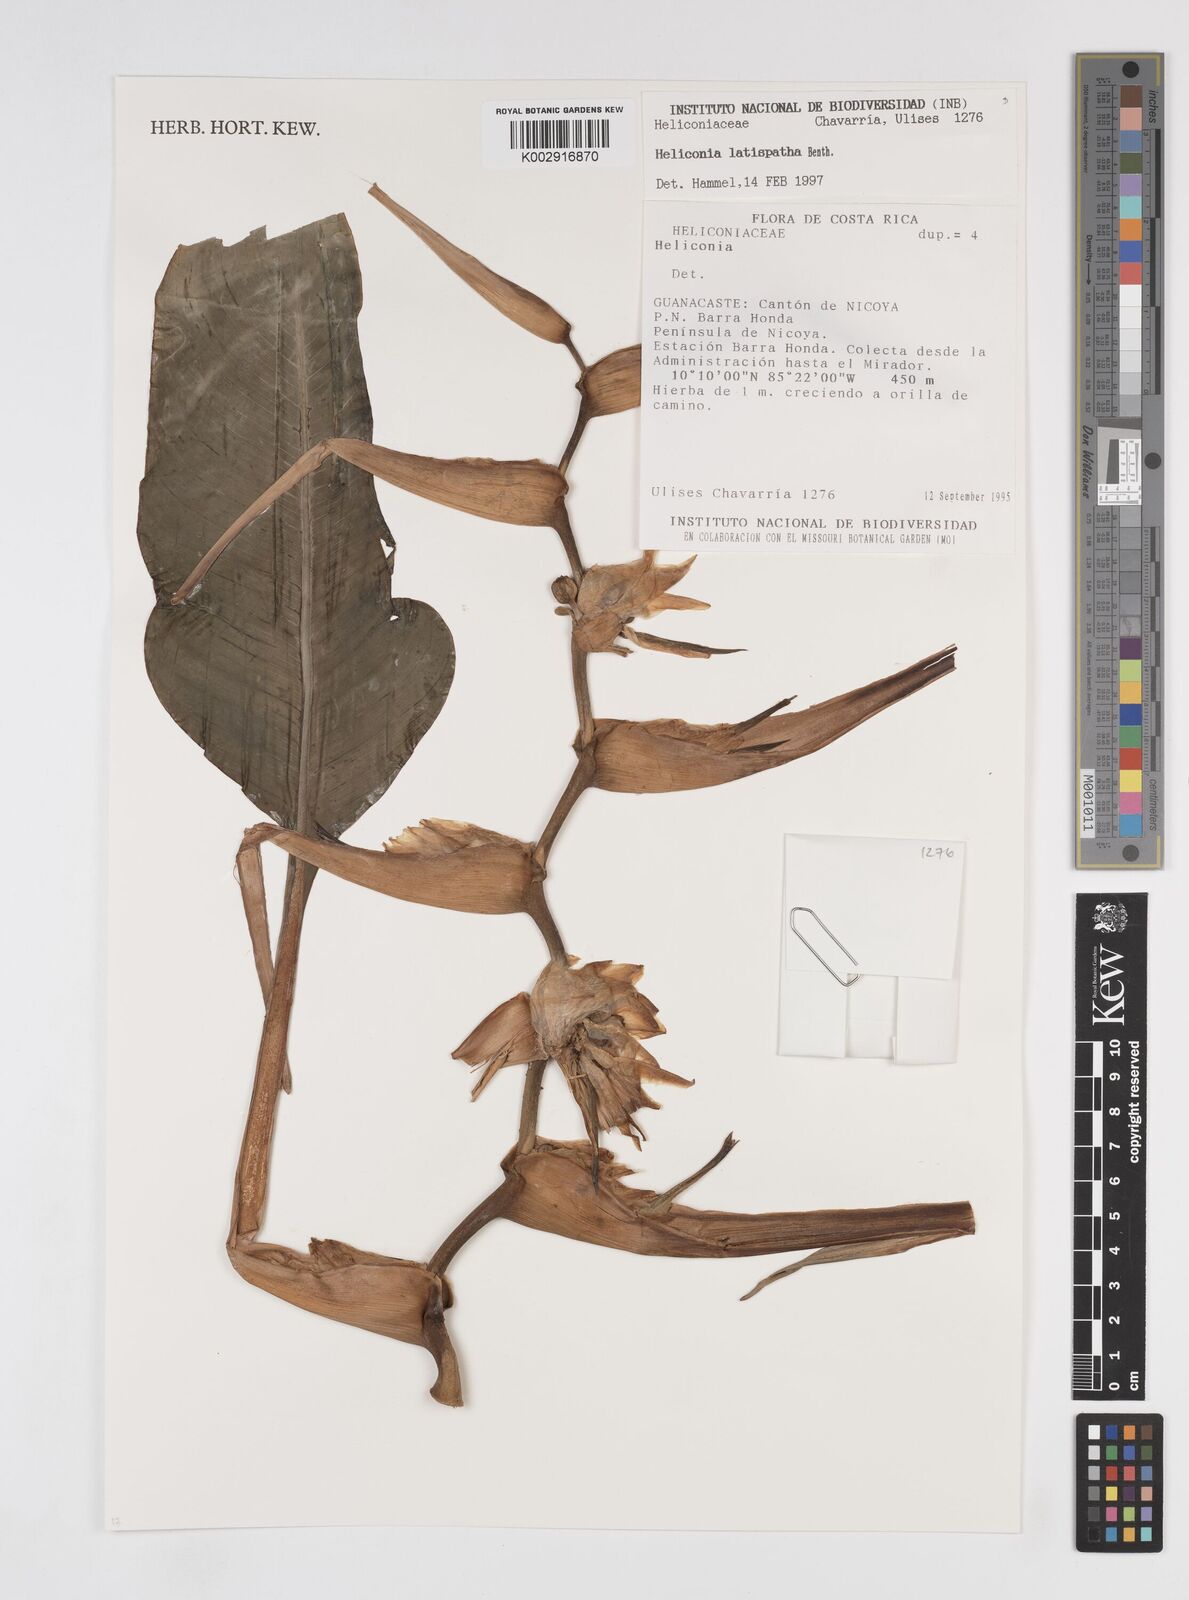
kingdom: Plantae
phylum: Tracheophyta
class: Liliopsida
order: Zingiberales
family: Heliconiaceae
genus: Heliconia
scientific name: Heliconia latispatha
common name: Expanded lobsterclaw
